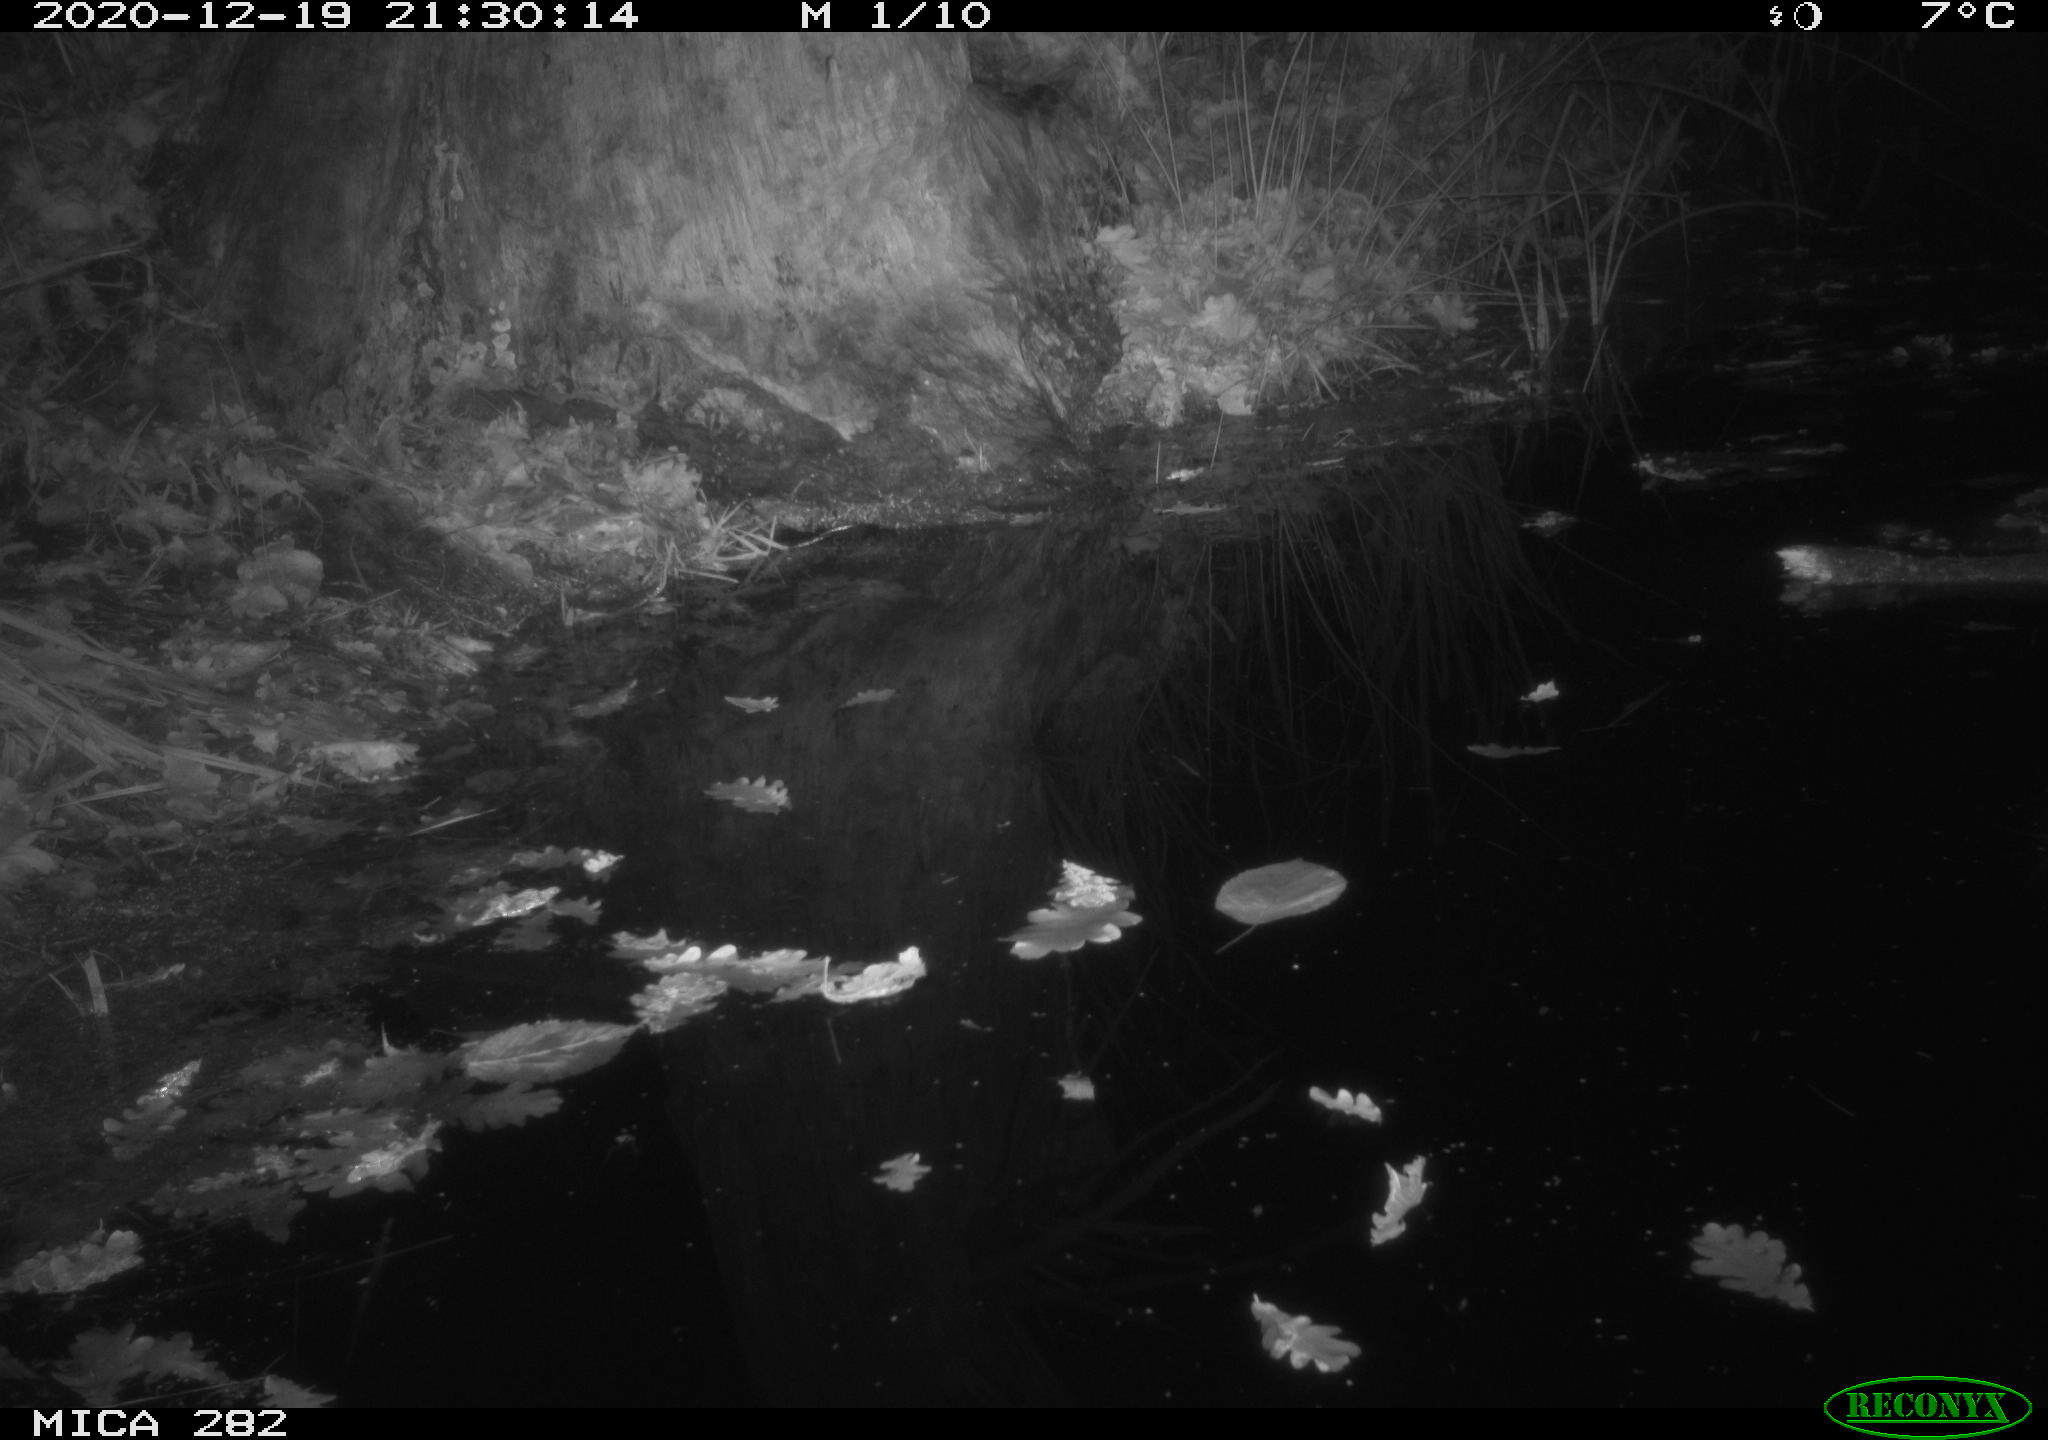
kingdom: Animalia
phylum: Chordata
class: Mammalia
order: Rodentia
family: Castoridae
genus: Castor
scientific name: Castor fiber
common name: Eurasian beaver
